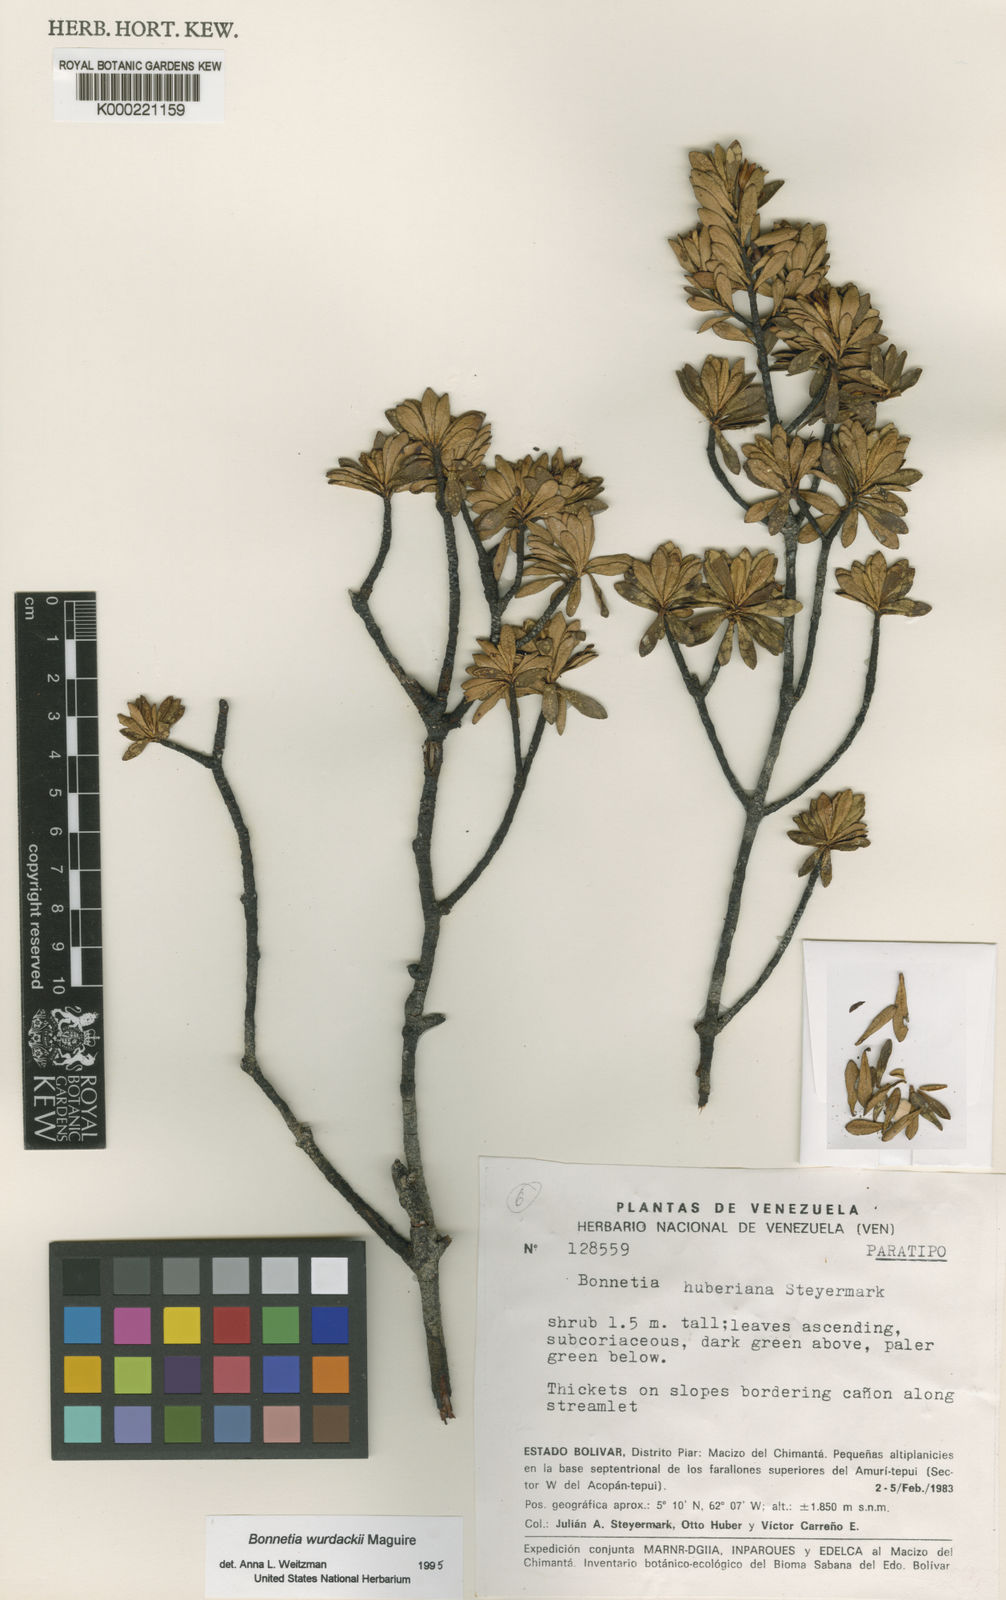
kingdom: Plantae
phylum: Tracheophyta
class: Magnoliopsida
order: Malpighiales
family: Bonnetiaceae
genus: Bonnetia
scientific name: Bonnetia huberiana
